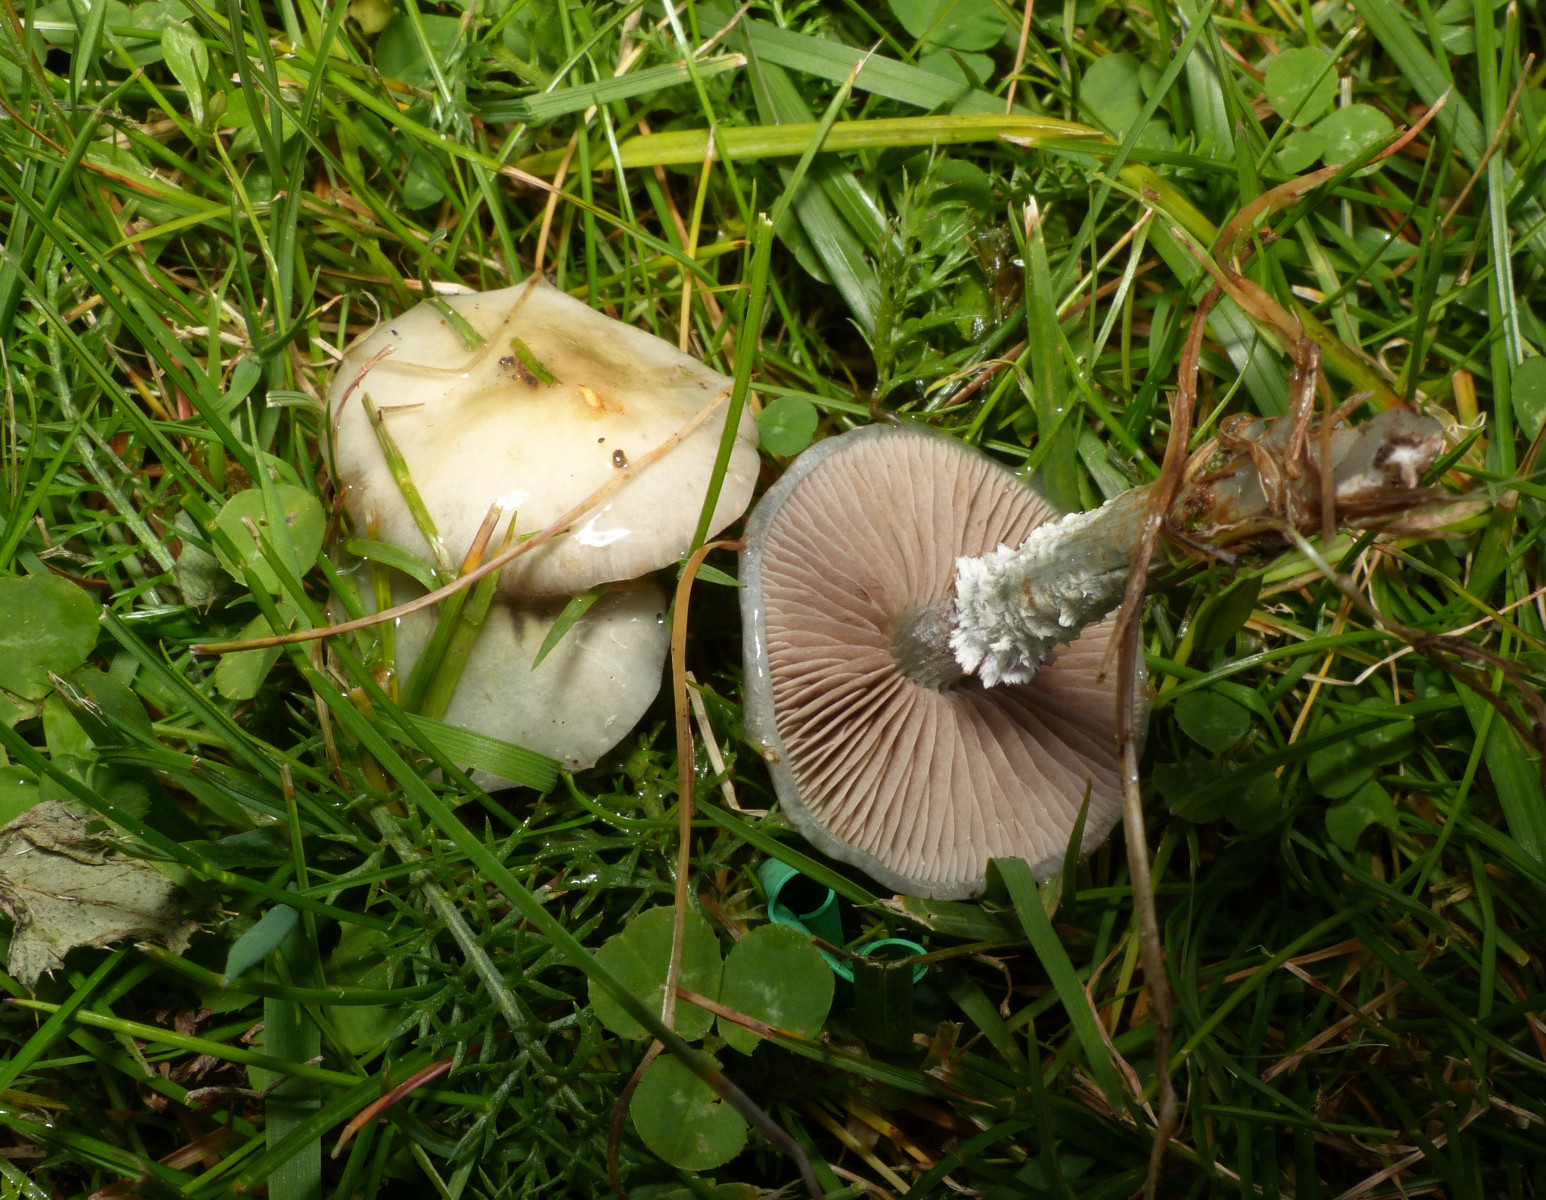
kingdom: Fungi
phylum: Basidiomycota
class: Agaricomycetes
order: Agaricales
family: Strophariaceae
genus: Stropharia
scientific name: Stropharia
